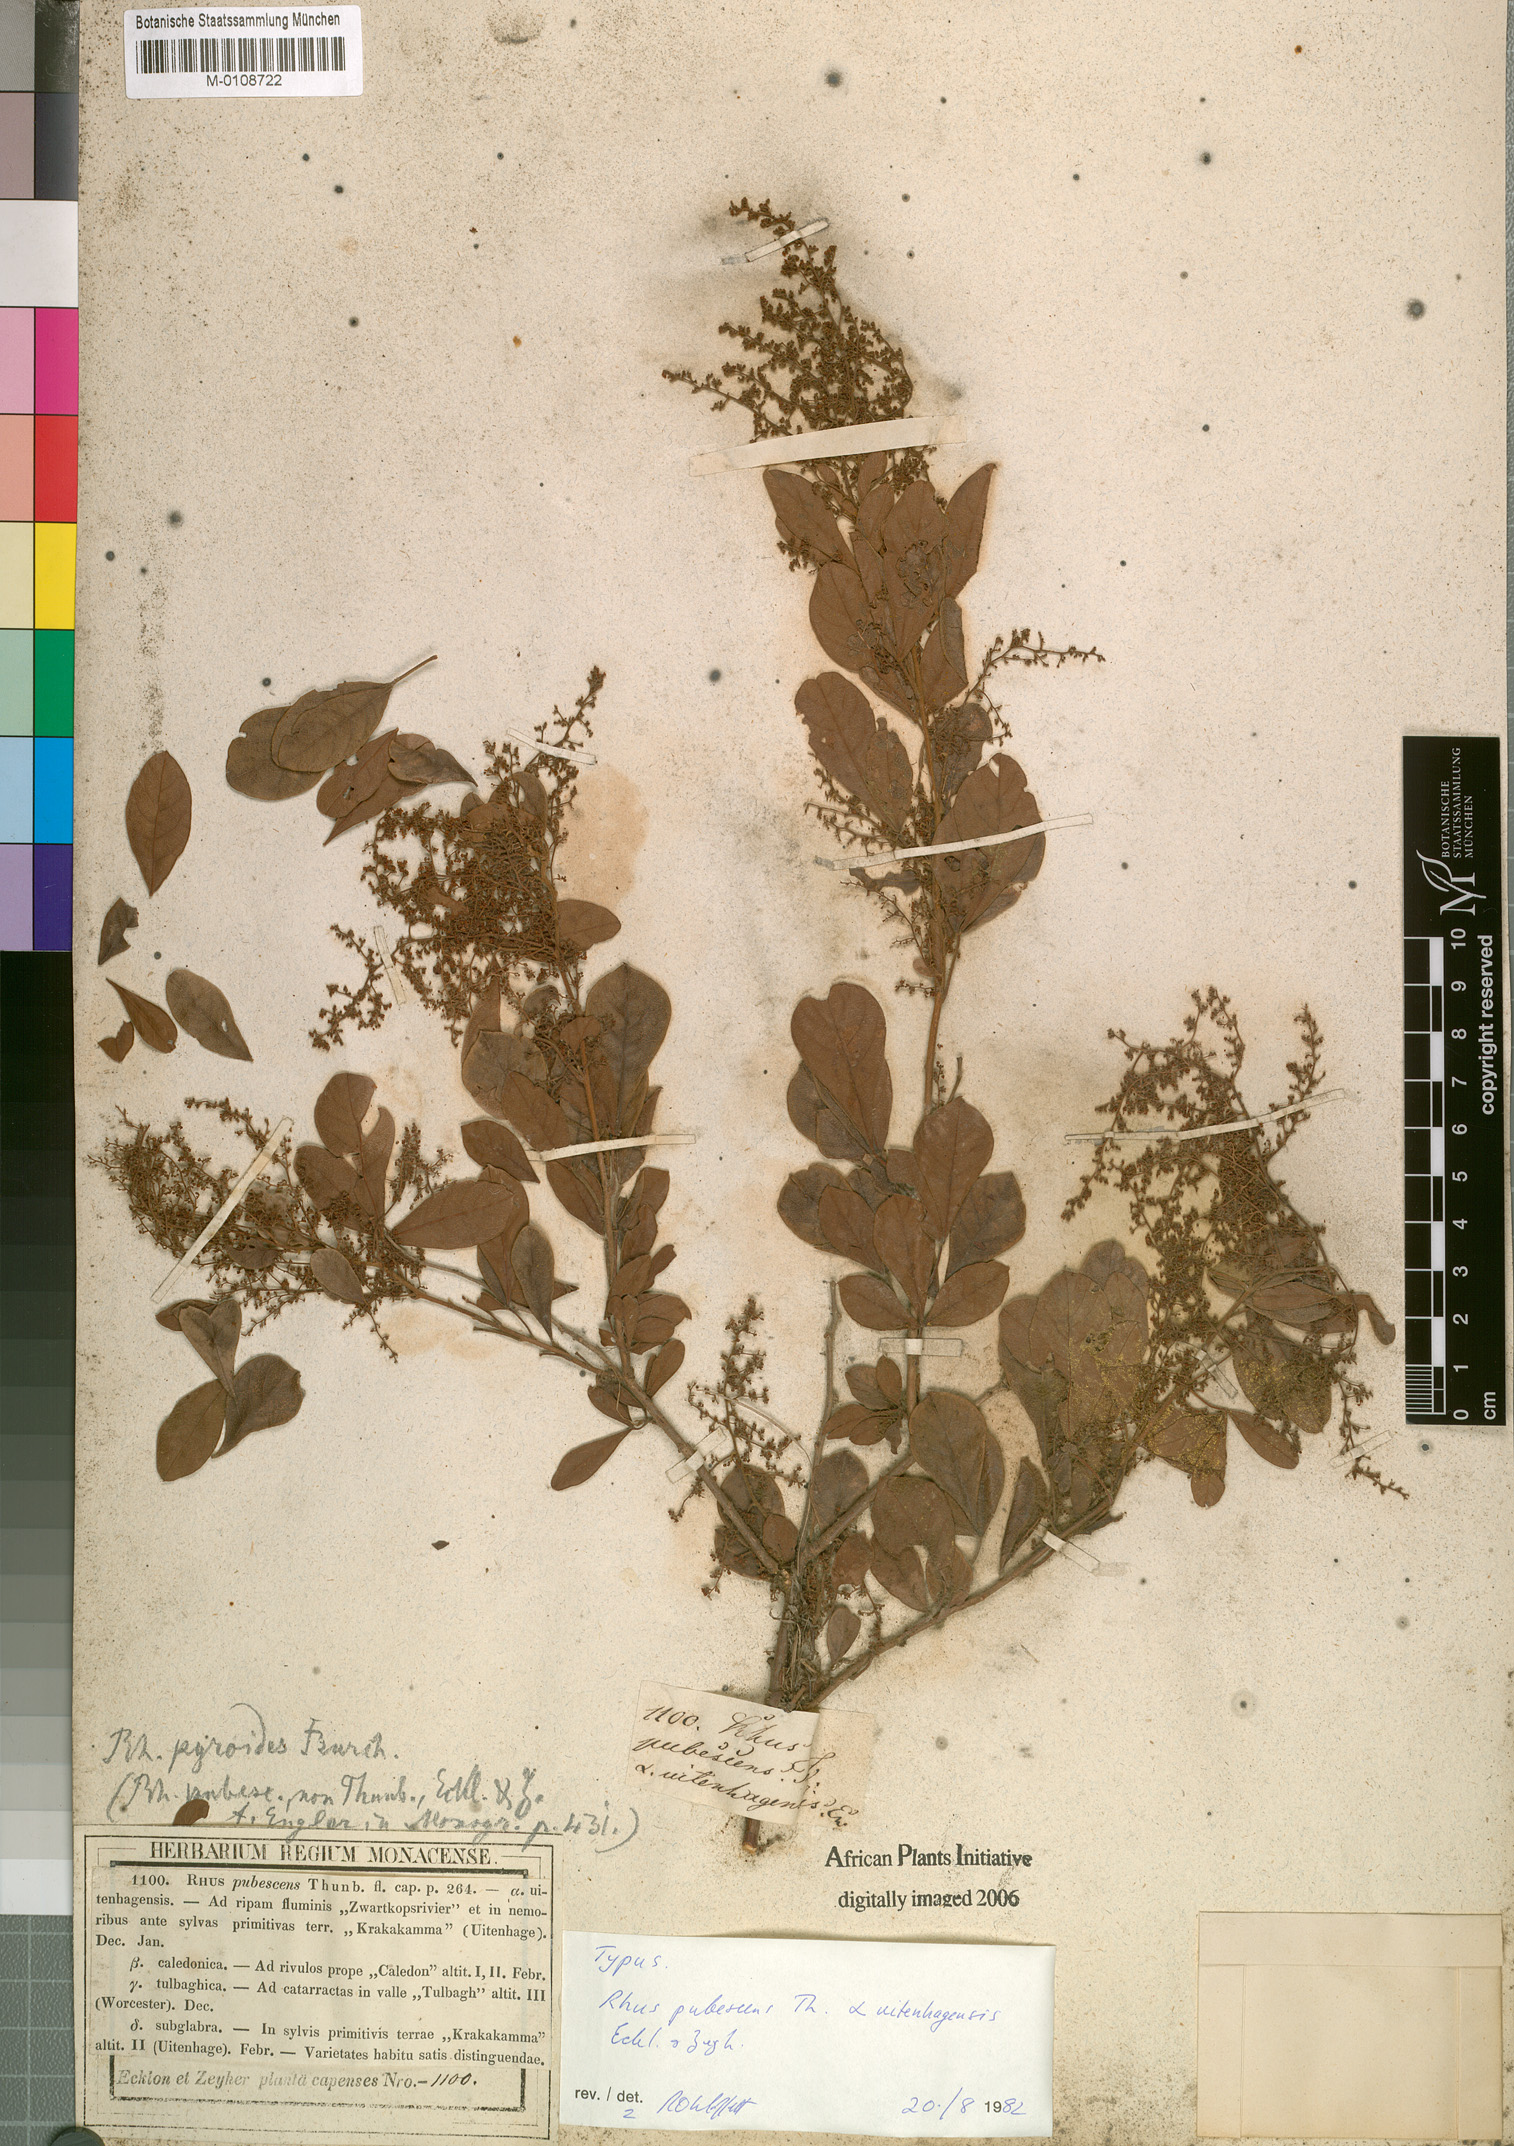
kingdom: Plantae
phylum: Tracheophyta
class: Magnoliopsida
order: Sapindales
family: Anacardiaceae
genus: Searsia
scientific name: Searsia rehmanniana
